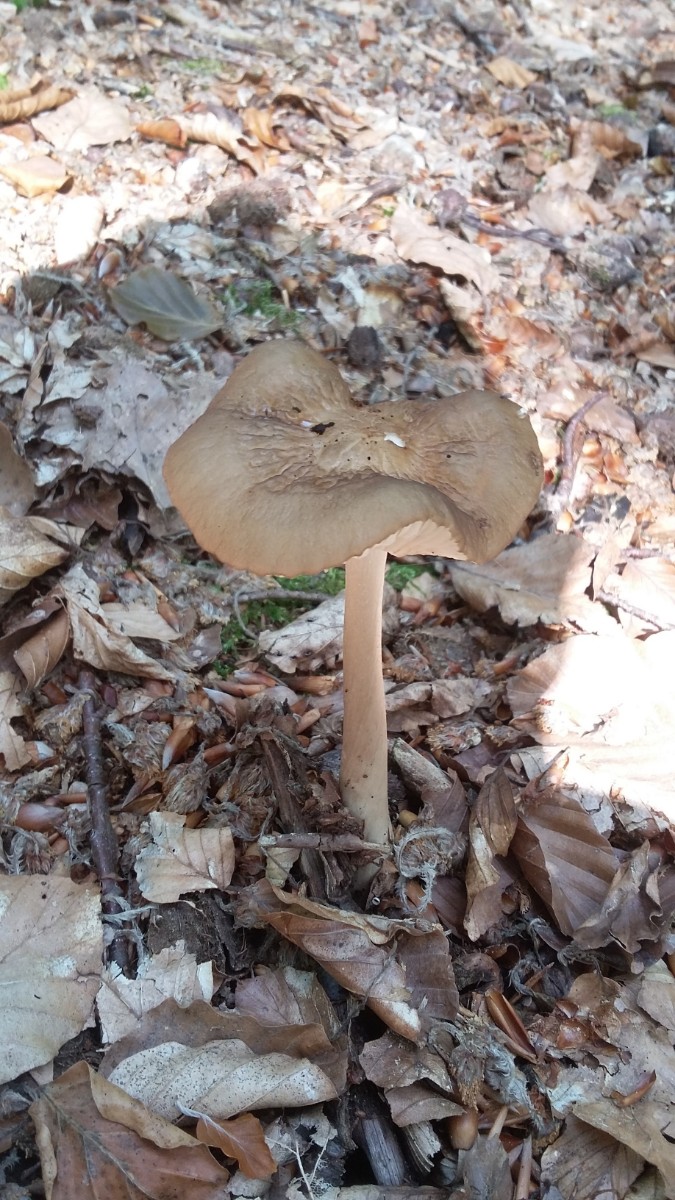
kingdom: Fungi
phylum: Basidiomycota
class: Agaricomycetes
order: Agaricales
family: Physalacriaceae
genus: Hymenopellis
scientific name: Hymenopellis radicata
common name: almindelig pælerodshat
